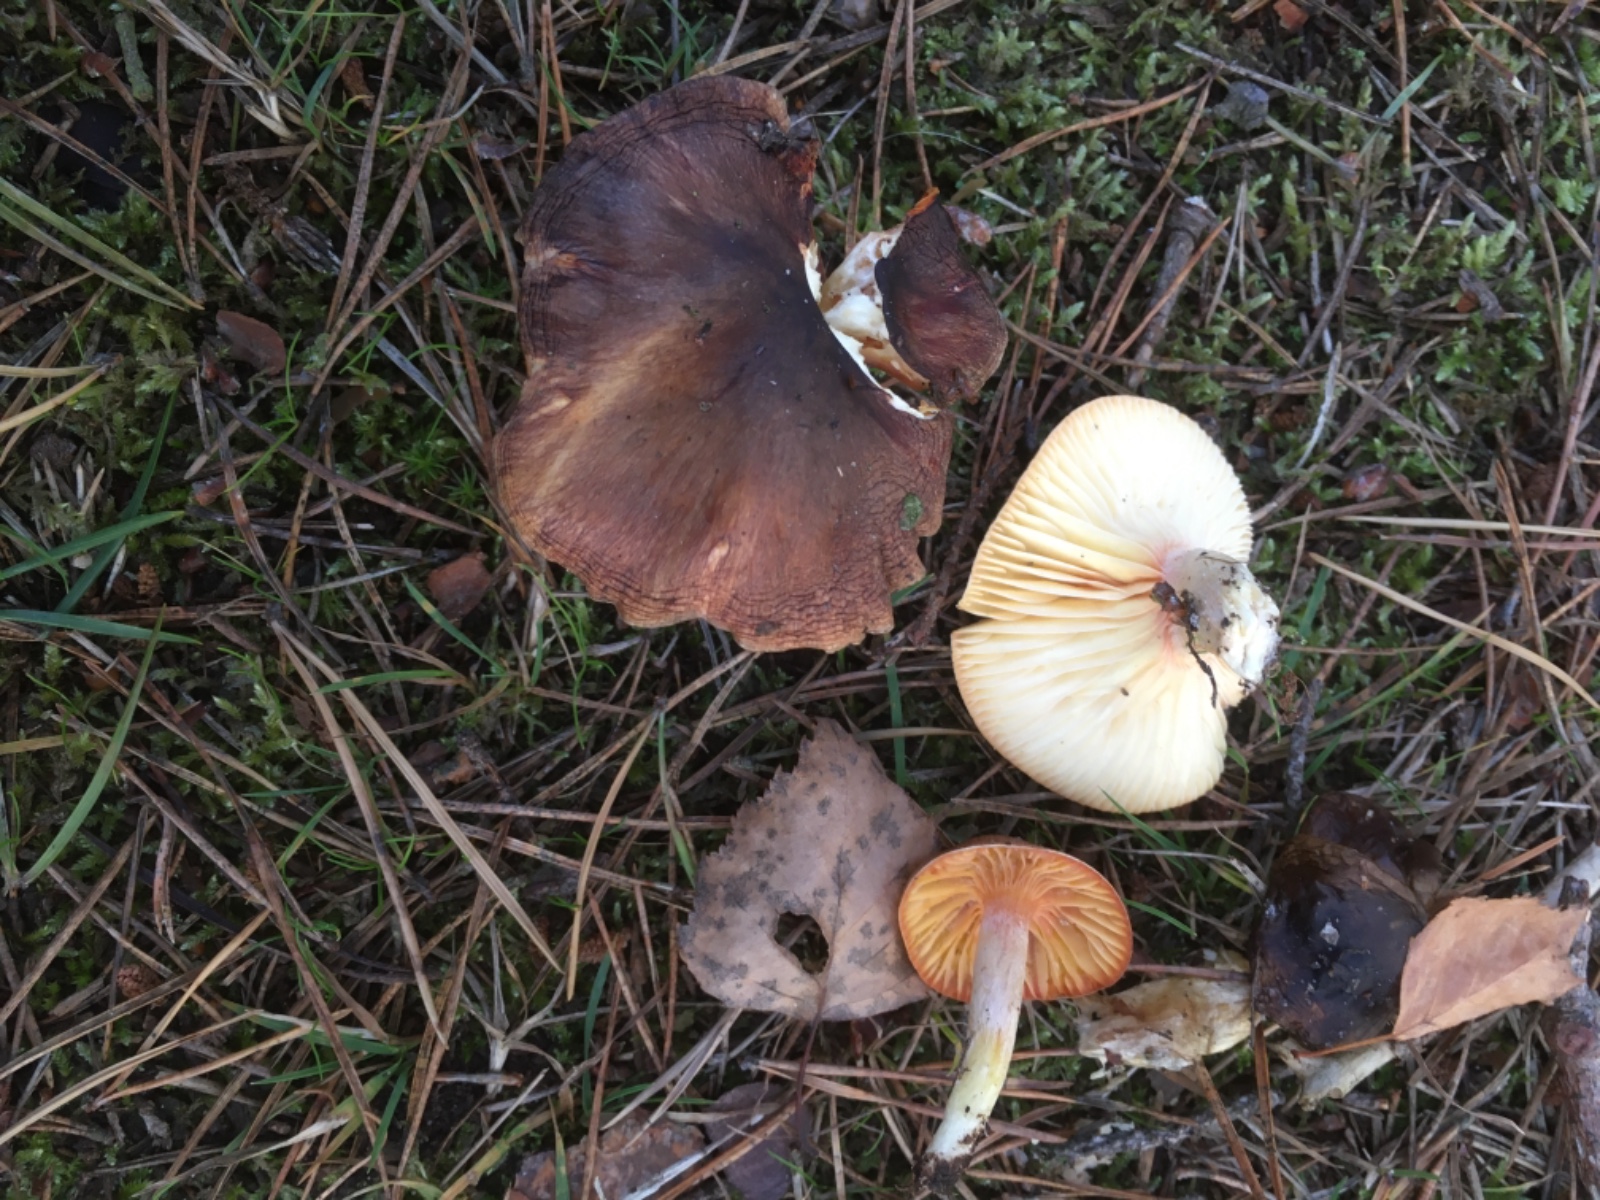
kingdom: Fungi
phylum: Basidiomycota
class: Agaricomycetes
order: Agaricales
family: Hygrophoraceae
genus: Hygrophorus
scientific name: Hygrophorus hypothejus
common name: frost-sneglehat
